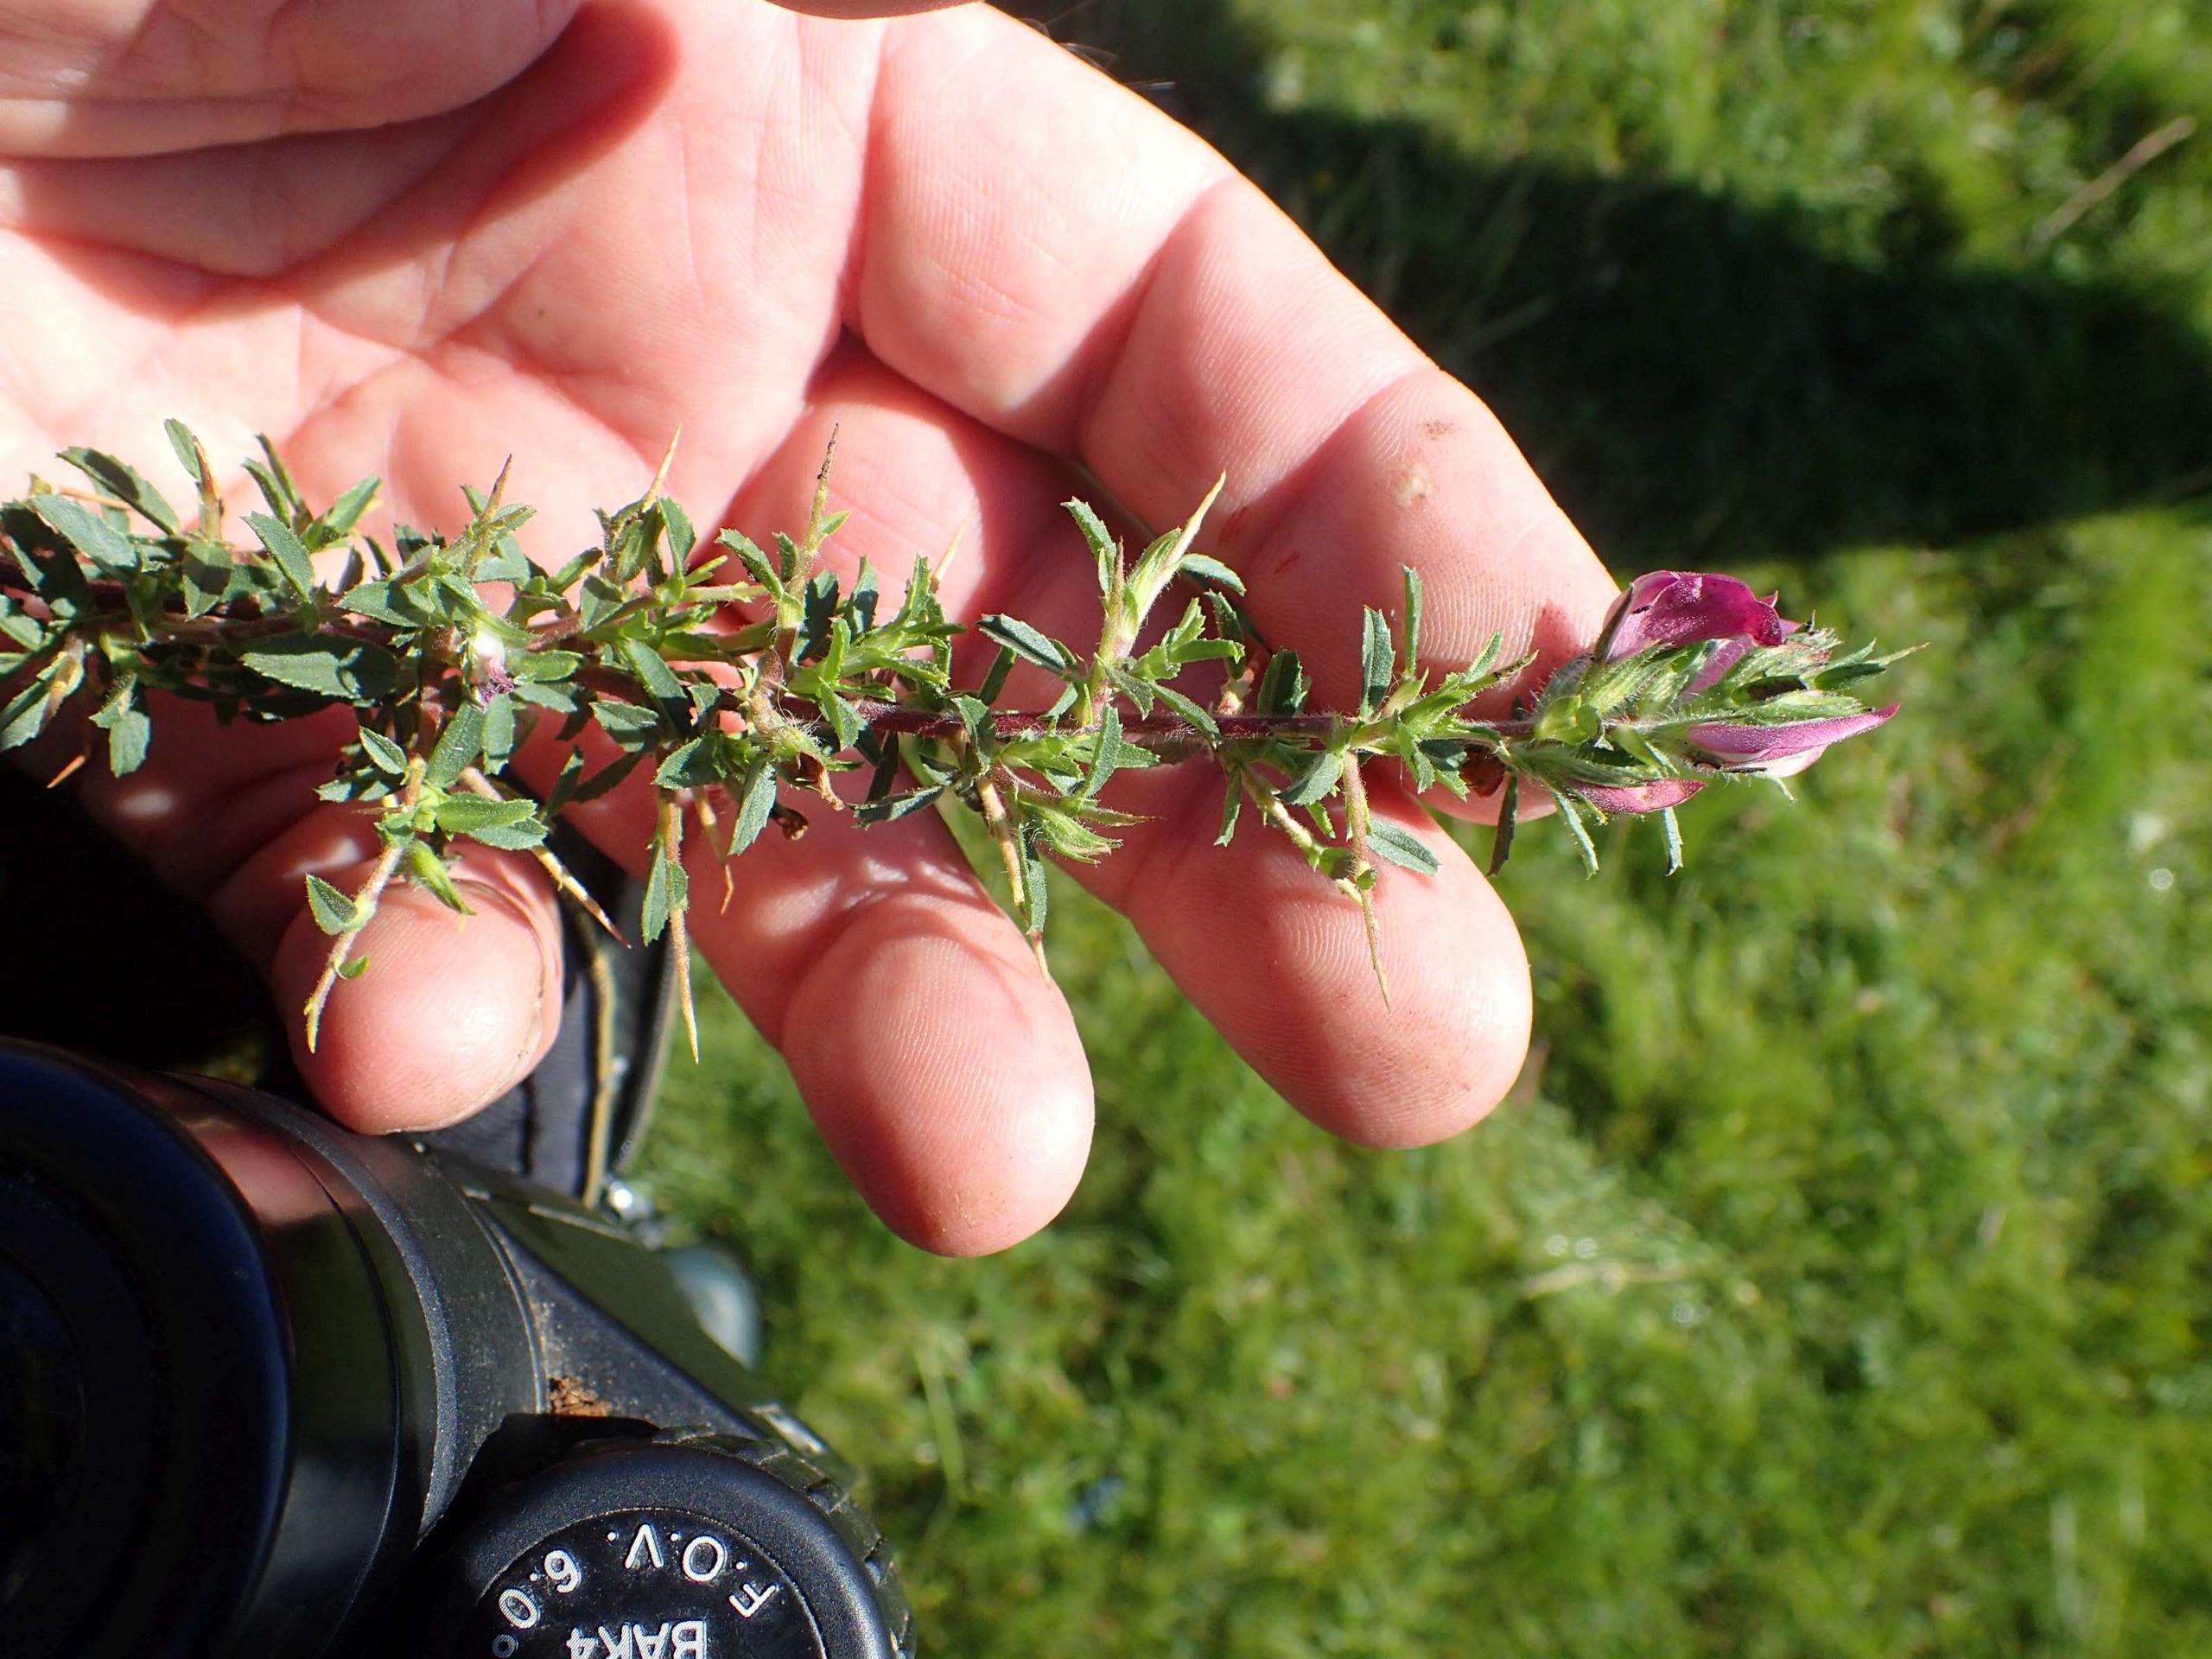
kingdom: Plantae
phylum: Tracheophyta
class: Magnoliopsida
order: Fabales
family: Fabaceae
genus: Ononis
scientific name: Ononis spinosa
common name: Strand-krageklo
